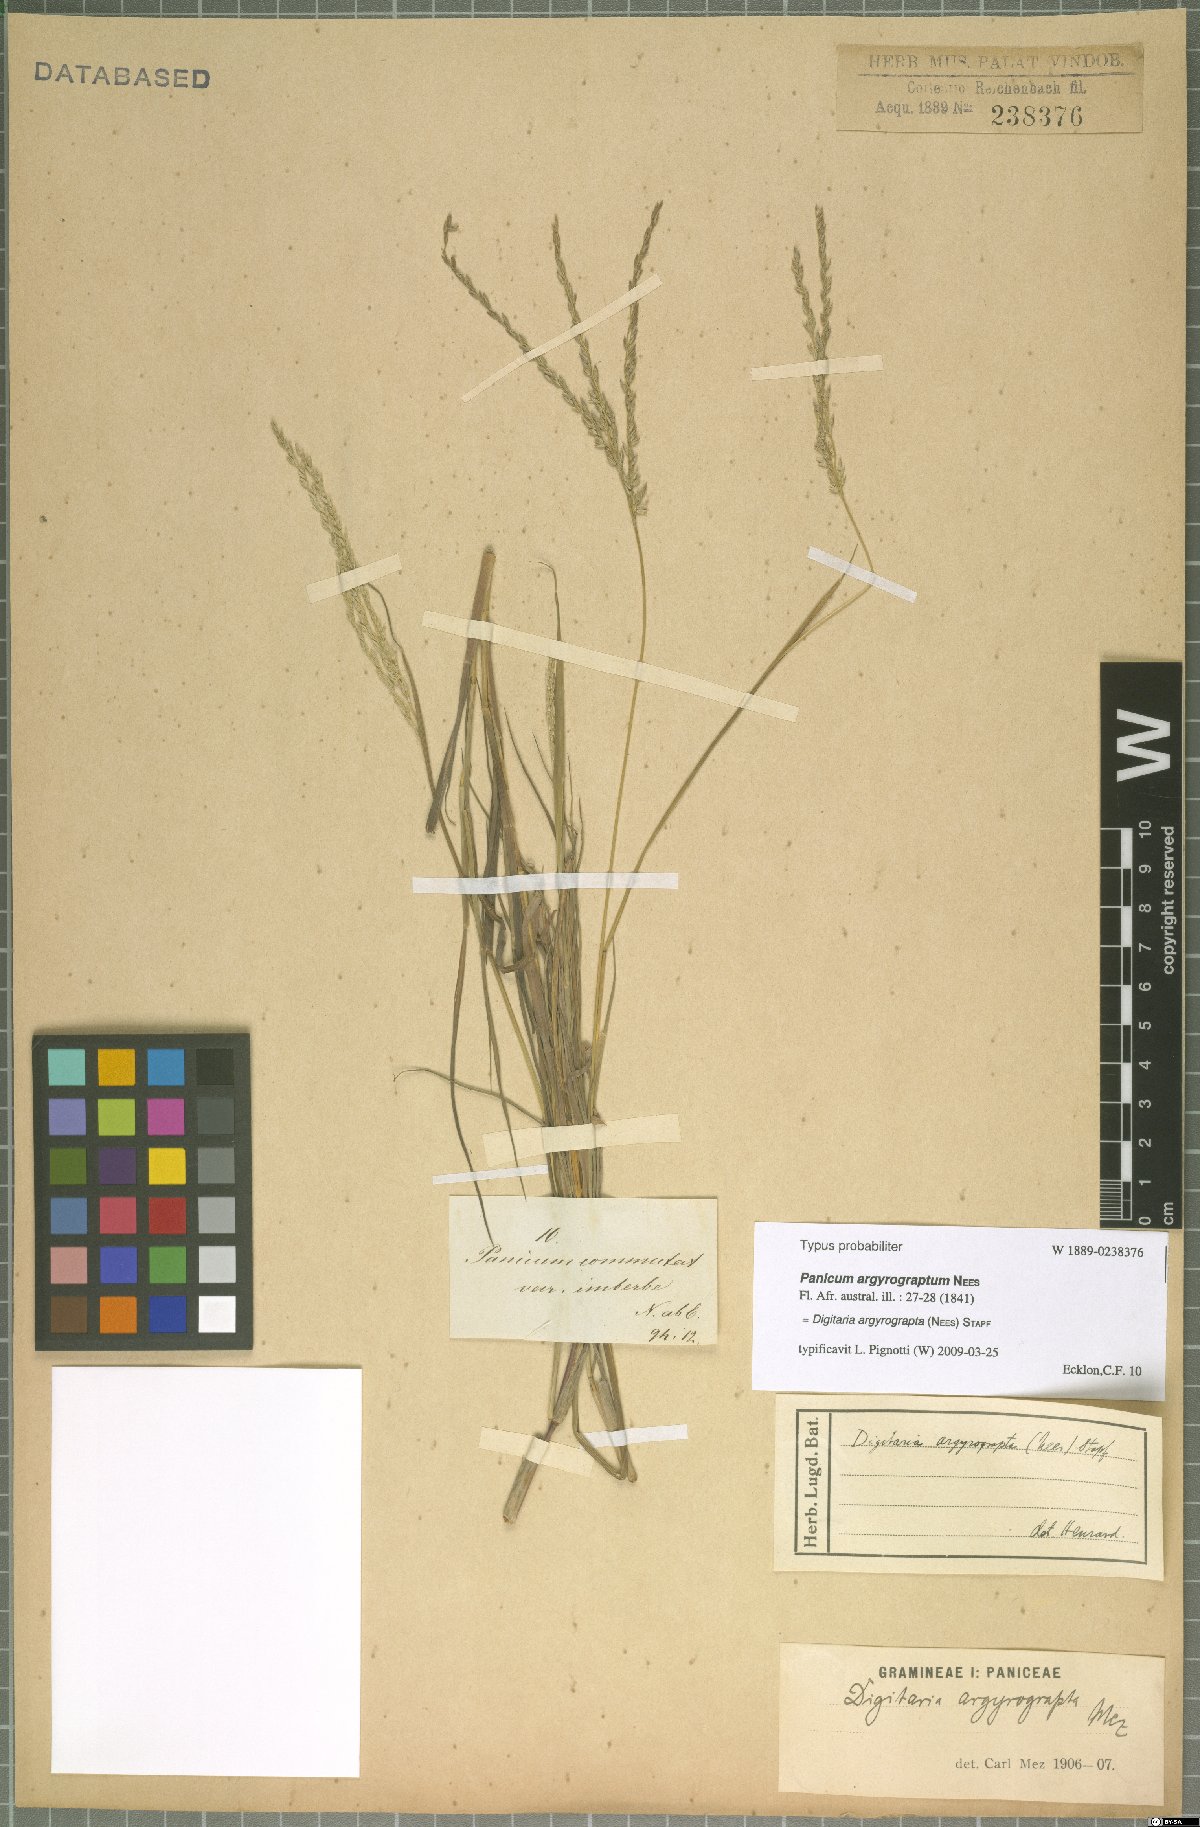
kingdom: Plantae
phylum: Tracheophyta
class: Liliopsida
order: Poales
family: Poaceae
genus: Digitaria
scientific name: Digitaria argyrograpta
